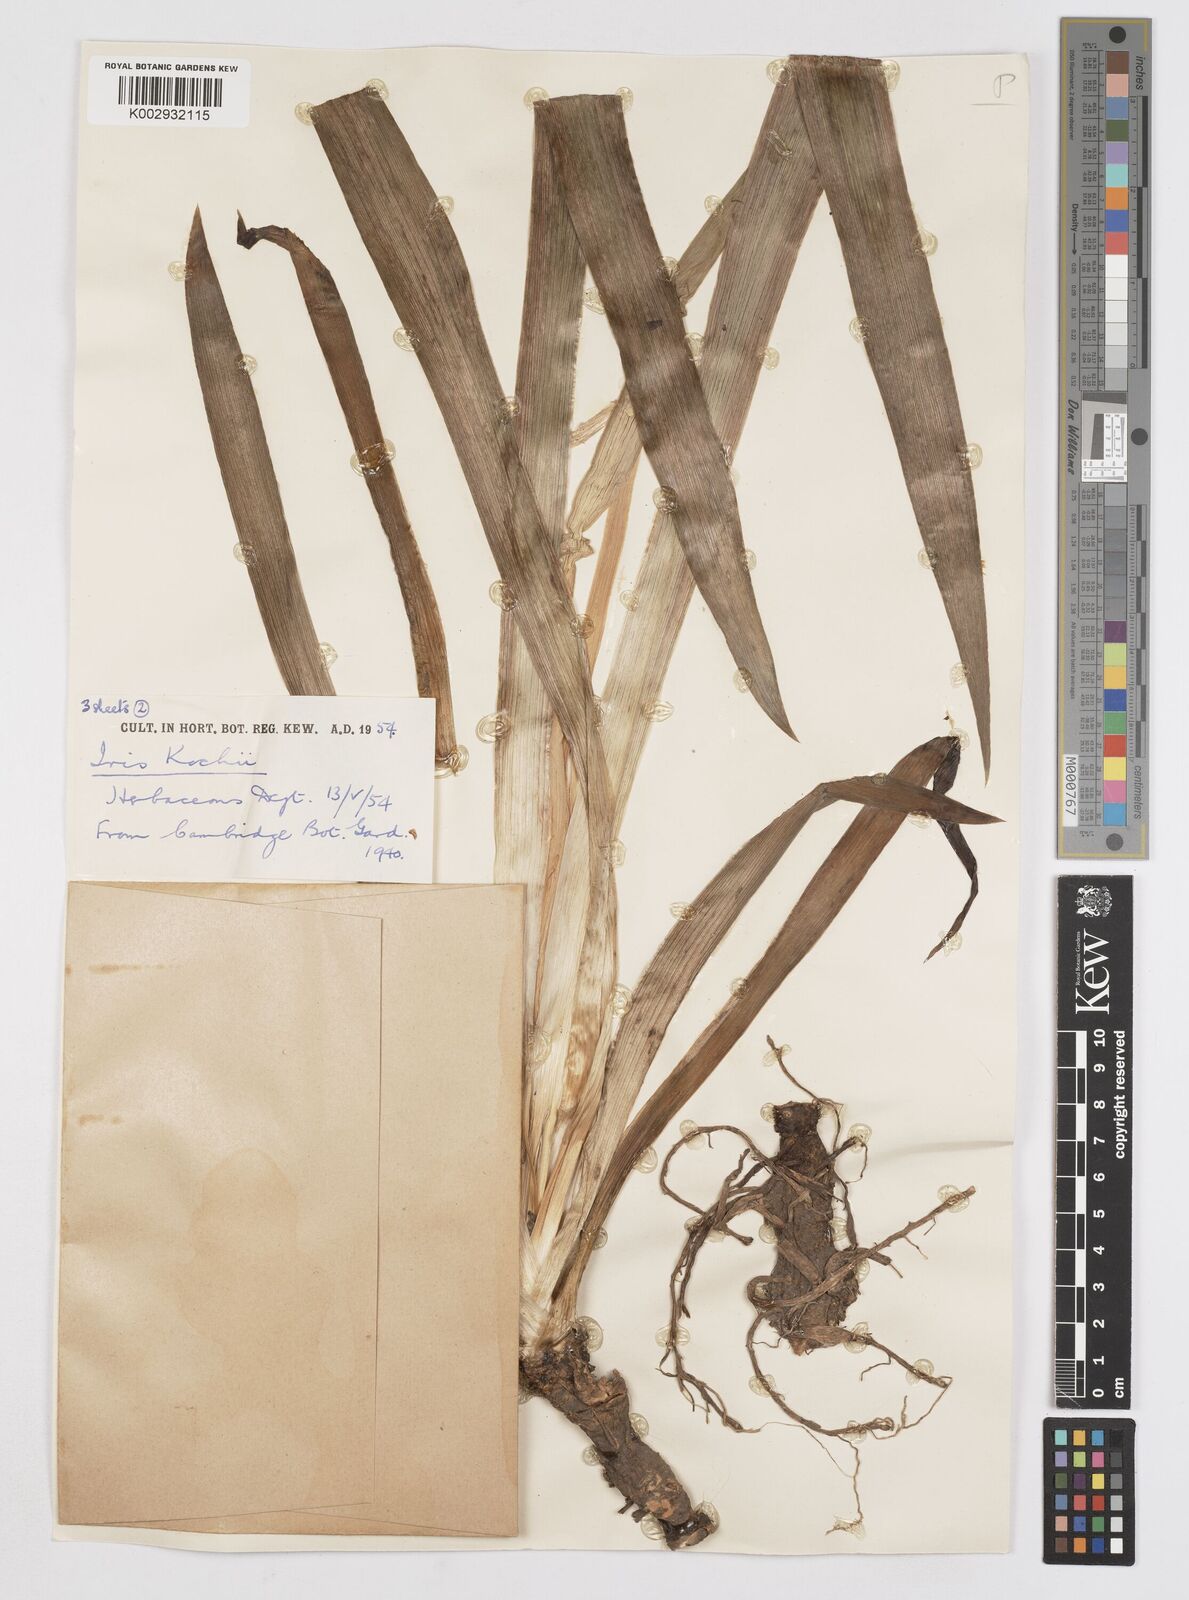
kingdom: Plantae
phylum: Tracheophyta
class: Liliopsida
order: Asparagales
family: Iridaceae
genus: Iris
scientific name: Iris kochii
